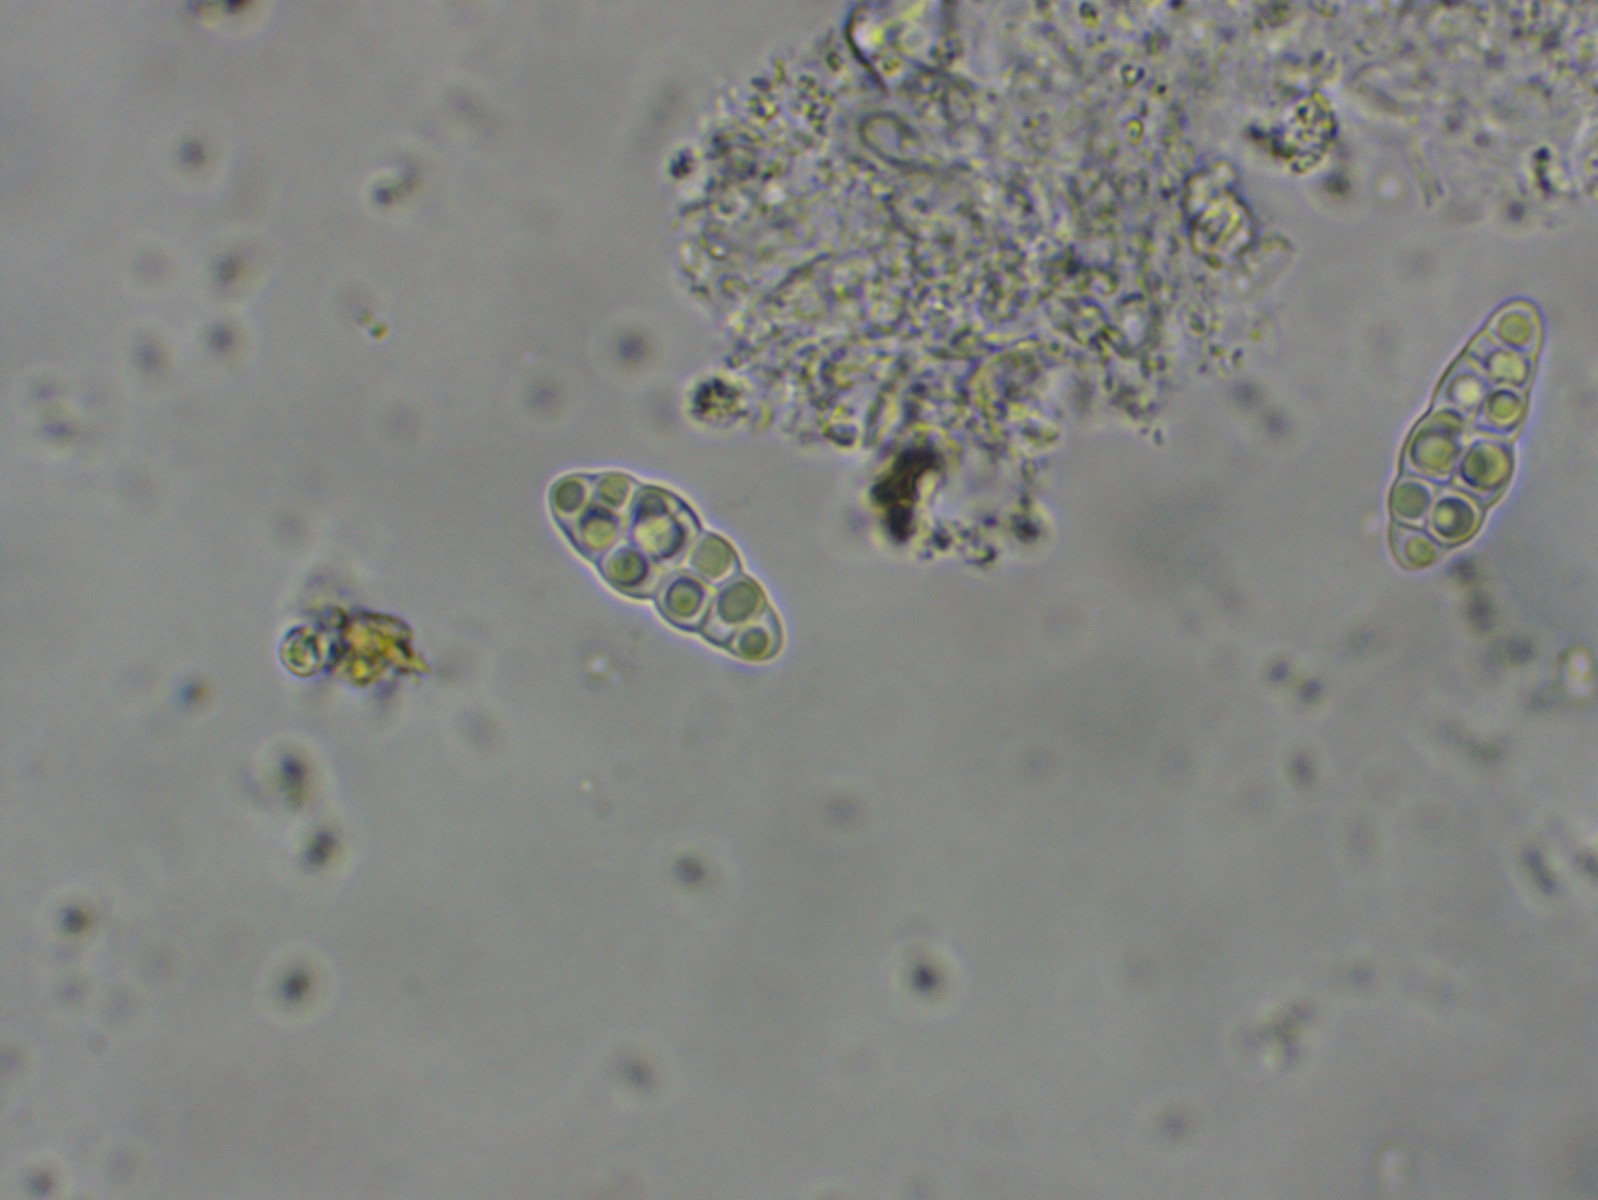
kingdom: Fungi
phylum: Ascomycota
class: Dothideomycetes
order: Hysteriales
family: Hysteriaceae
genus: Hysterobrevium
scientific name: Hysterobrevium smilacis
